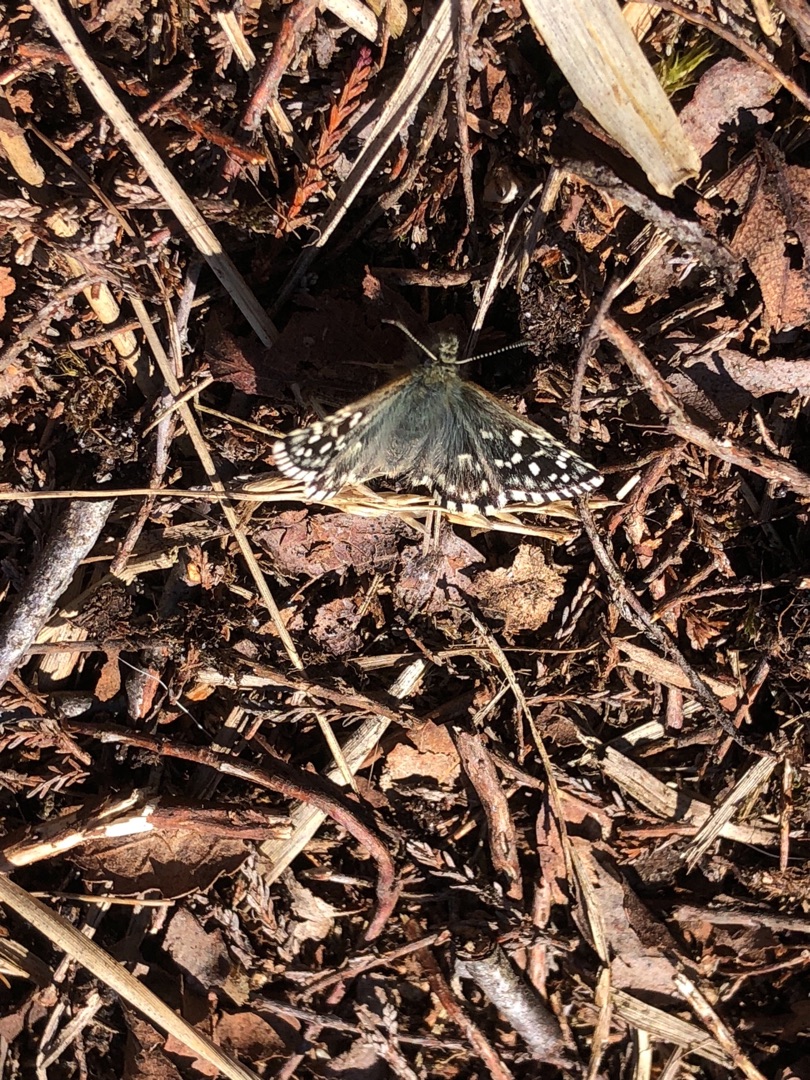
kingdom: Animalia
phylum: Arthropoda
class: Insecta
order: Lepidoptera
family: Hesperiidae
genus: Pyrgus
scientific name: Pyrgus malvae
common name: Spættet bredpande
